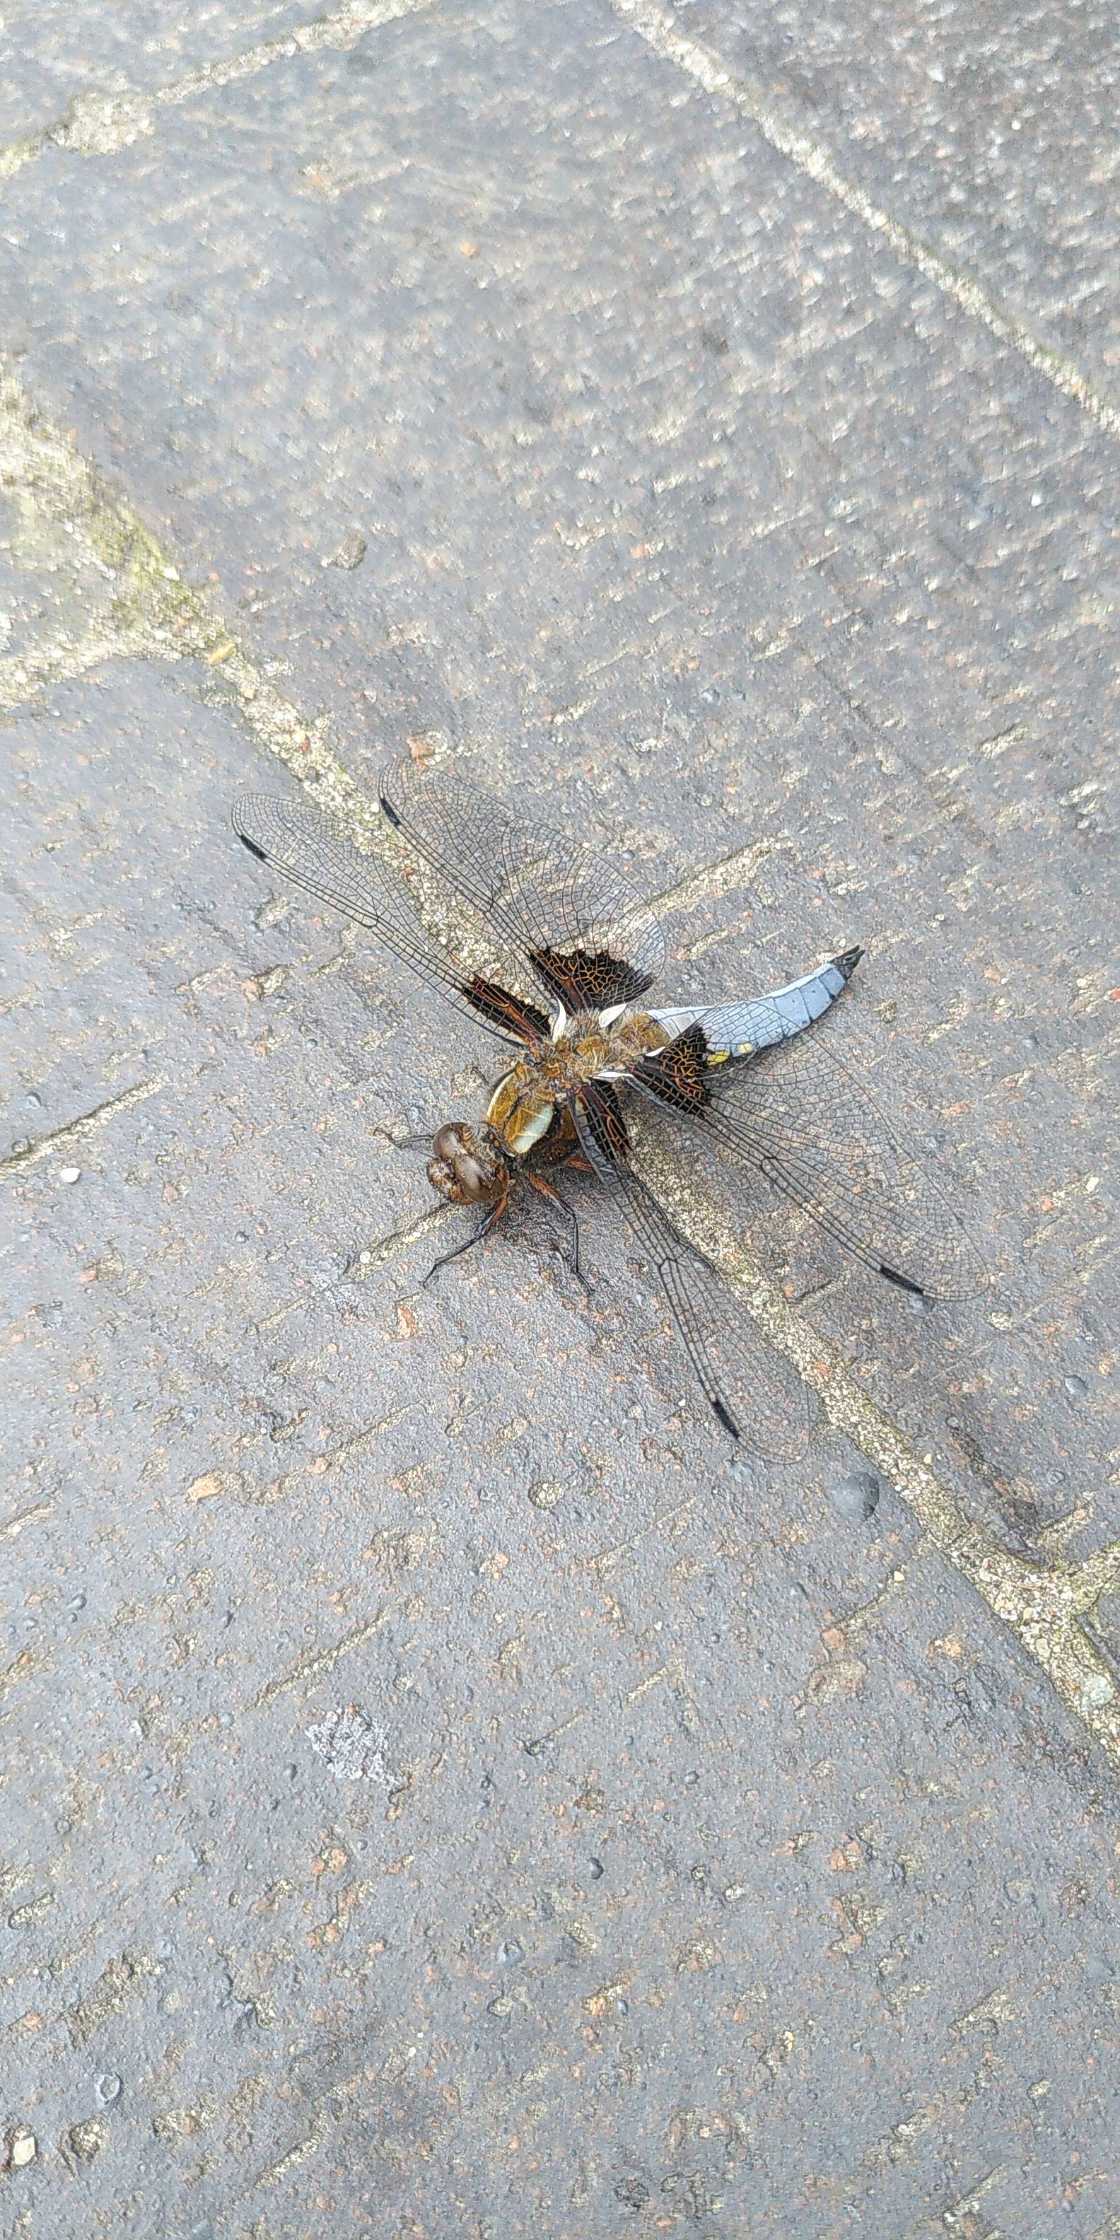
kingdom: Animalia
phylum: Arthropoda
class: Insecta
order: Odonata
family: Libellulidae
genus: Libellula
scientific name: Libellula depressa
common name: Blå libel
